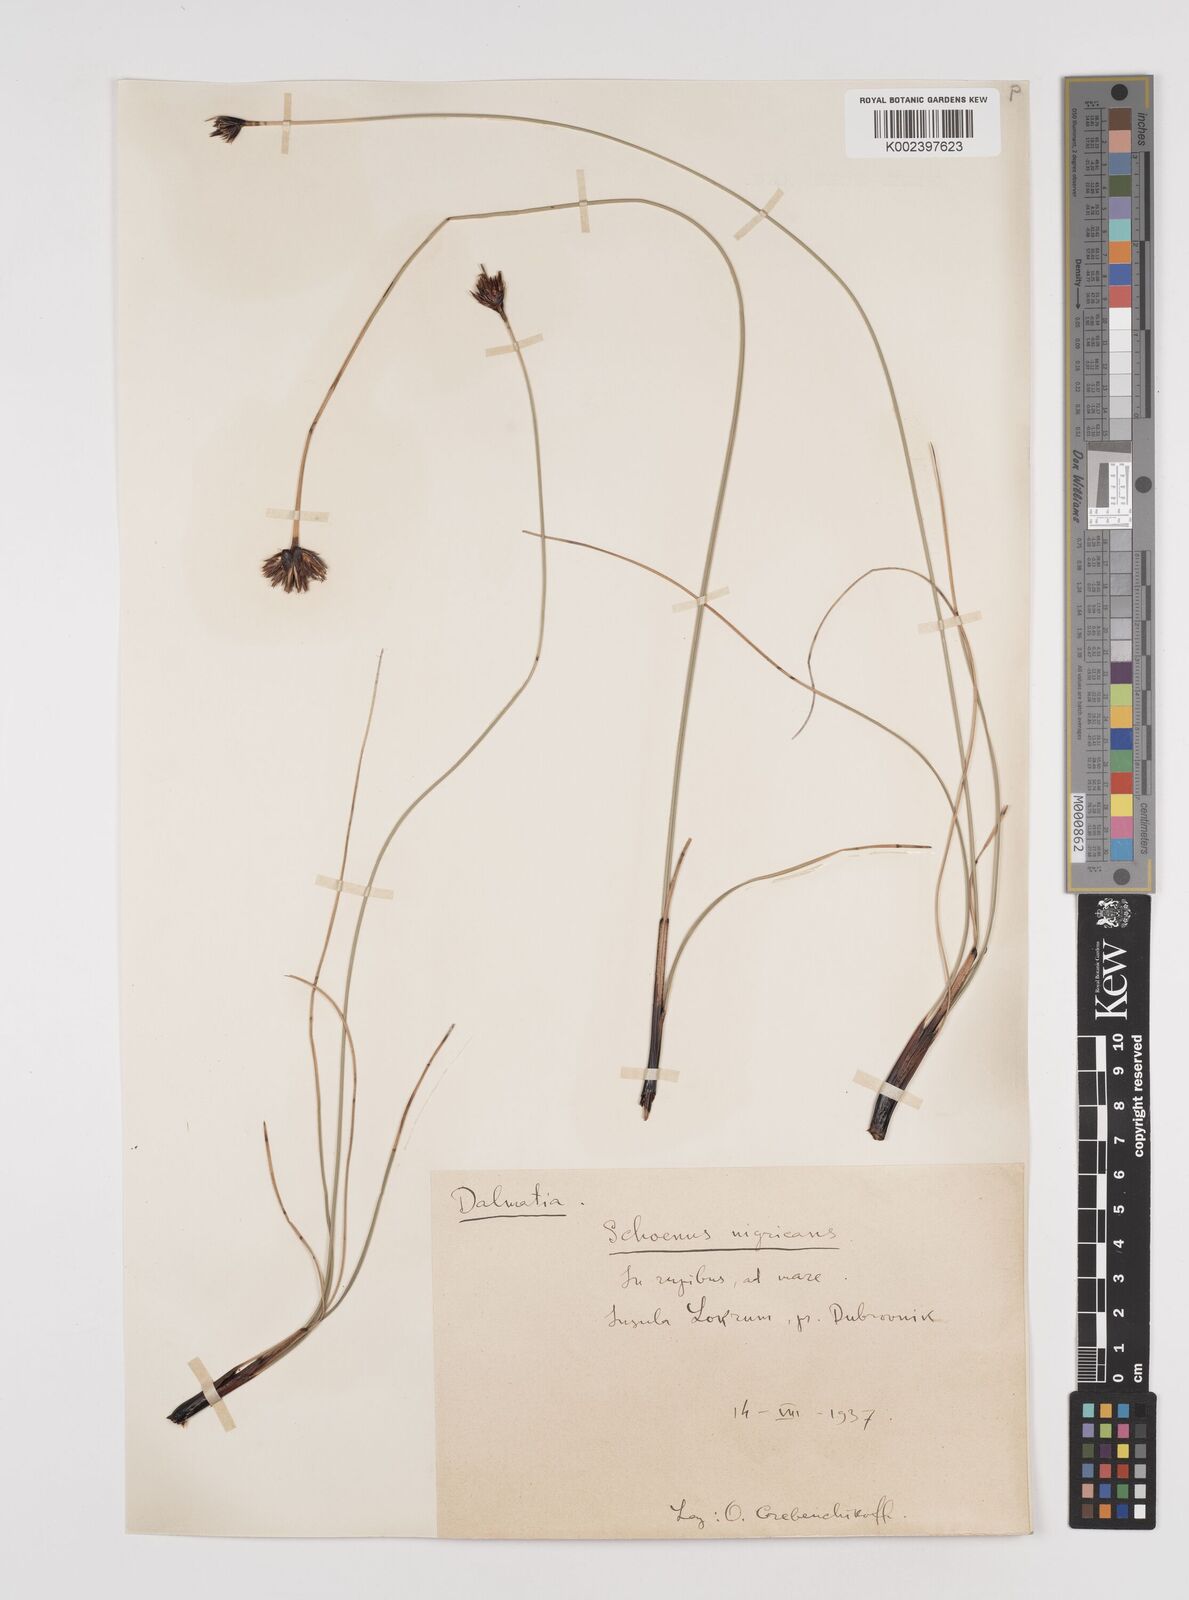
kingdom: Plantae
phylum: Tracheophyta
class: Liliopsida
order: Poales
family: Cyperaceae
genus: Schoenus
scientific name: Schoenus nigricans
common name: Black bog-rush
